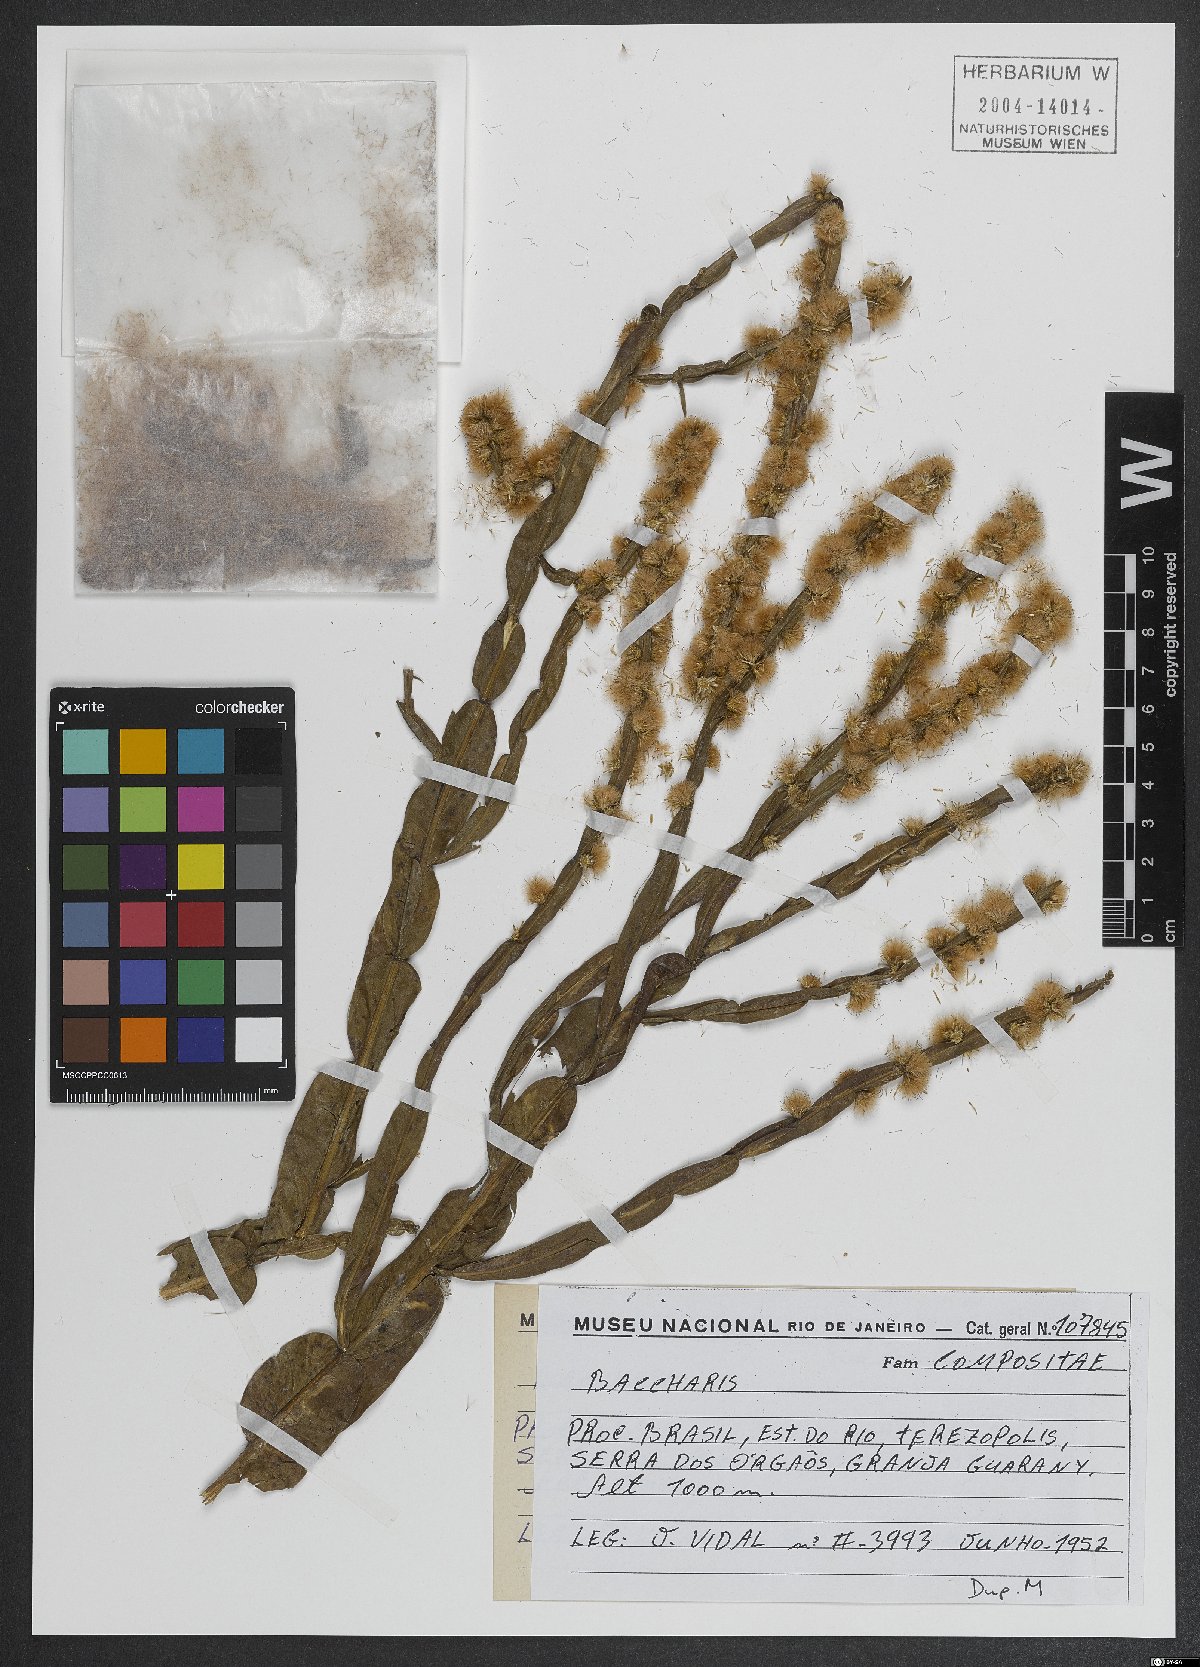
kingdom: Plantae
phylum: Tracheophyta
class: Magnoliopsida
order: Asterales
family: Asteraceae
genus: Baccharis
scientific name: Baccharis
